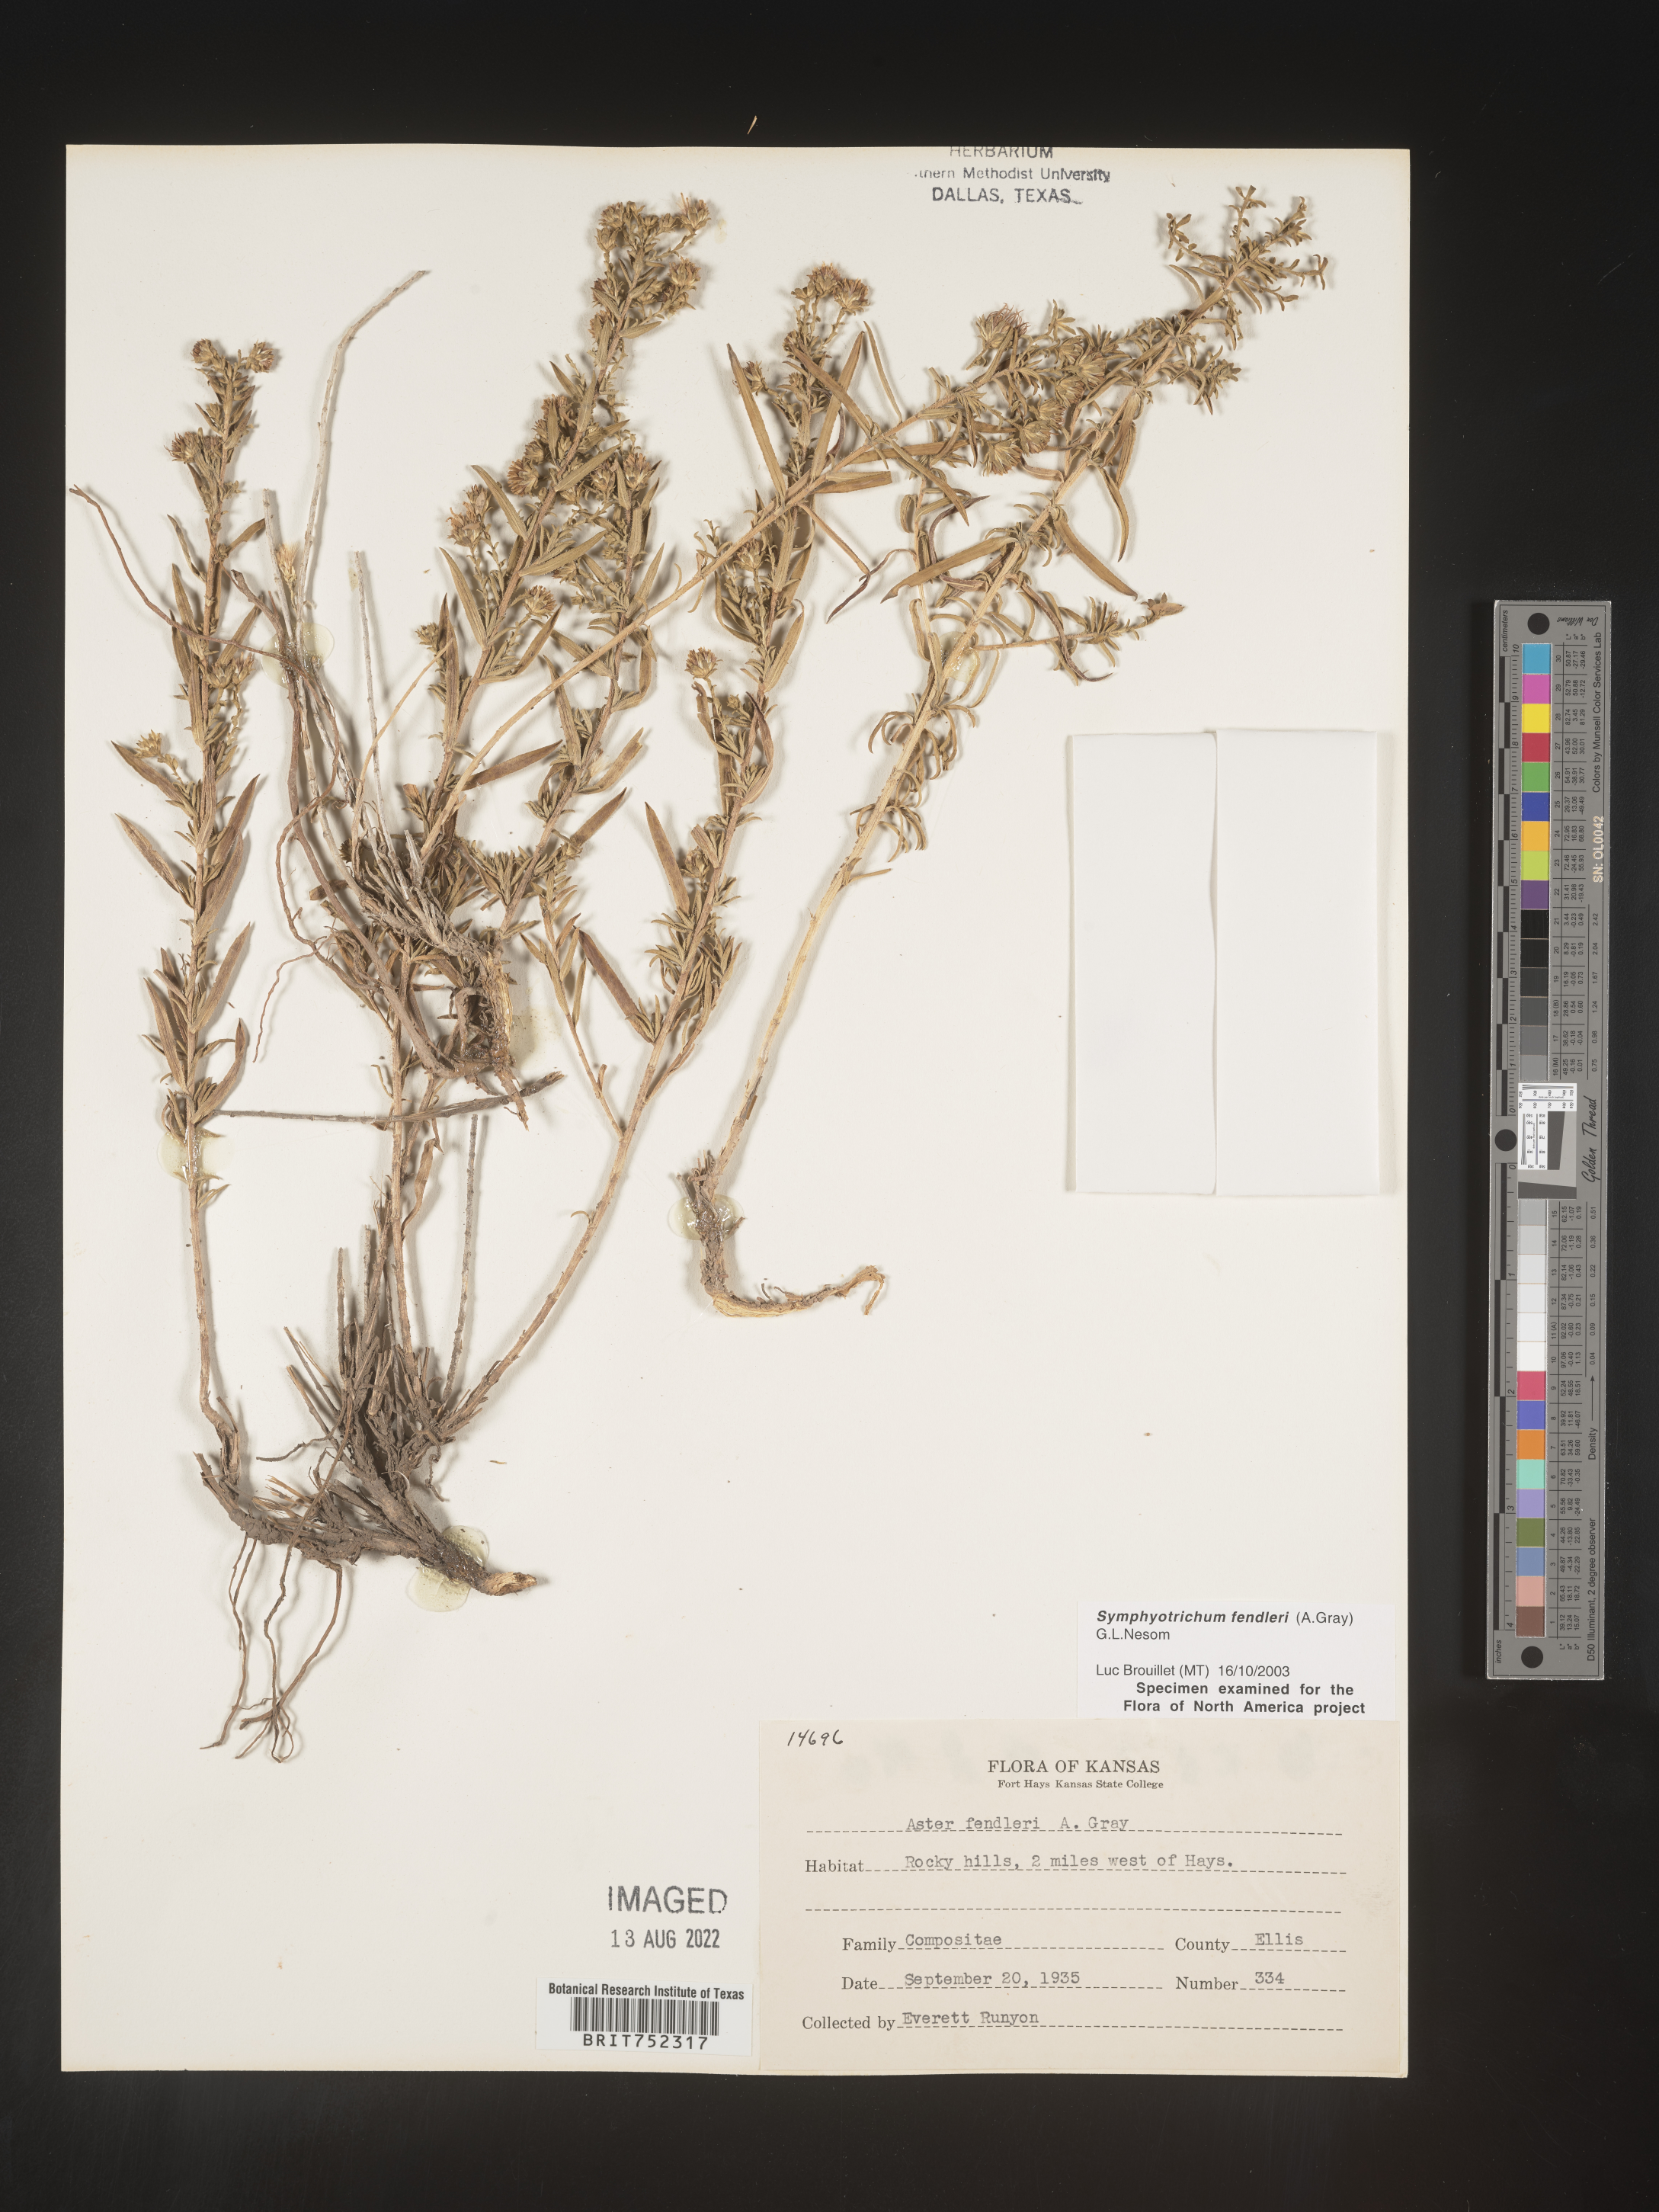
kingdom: Plantae
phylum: Tracheophyta
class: Magnoliopsida
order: Asterales
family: Asteraceae
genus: Symphyotrichum
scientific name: Symphyotrichum fendleri
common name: Fendler's aster
